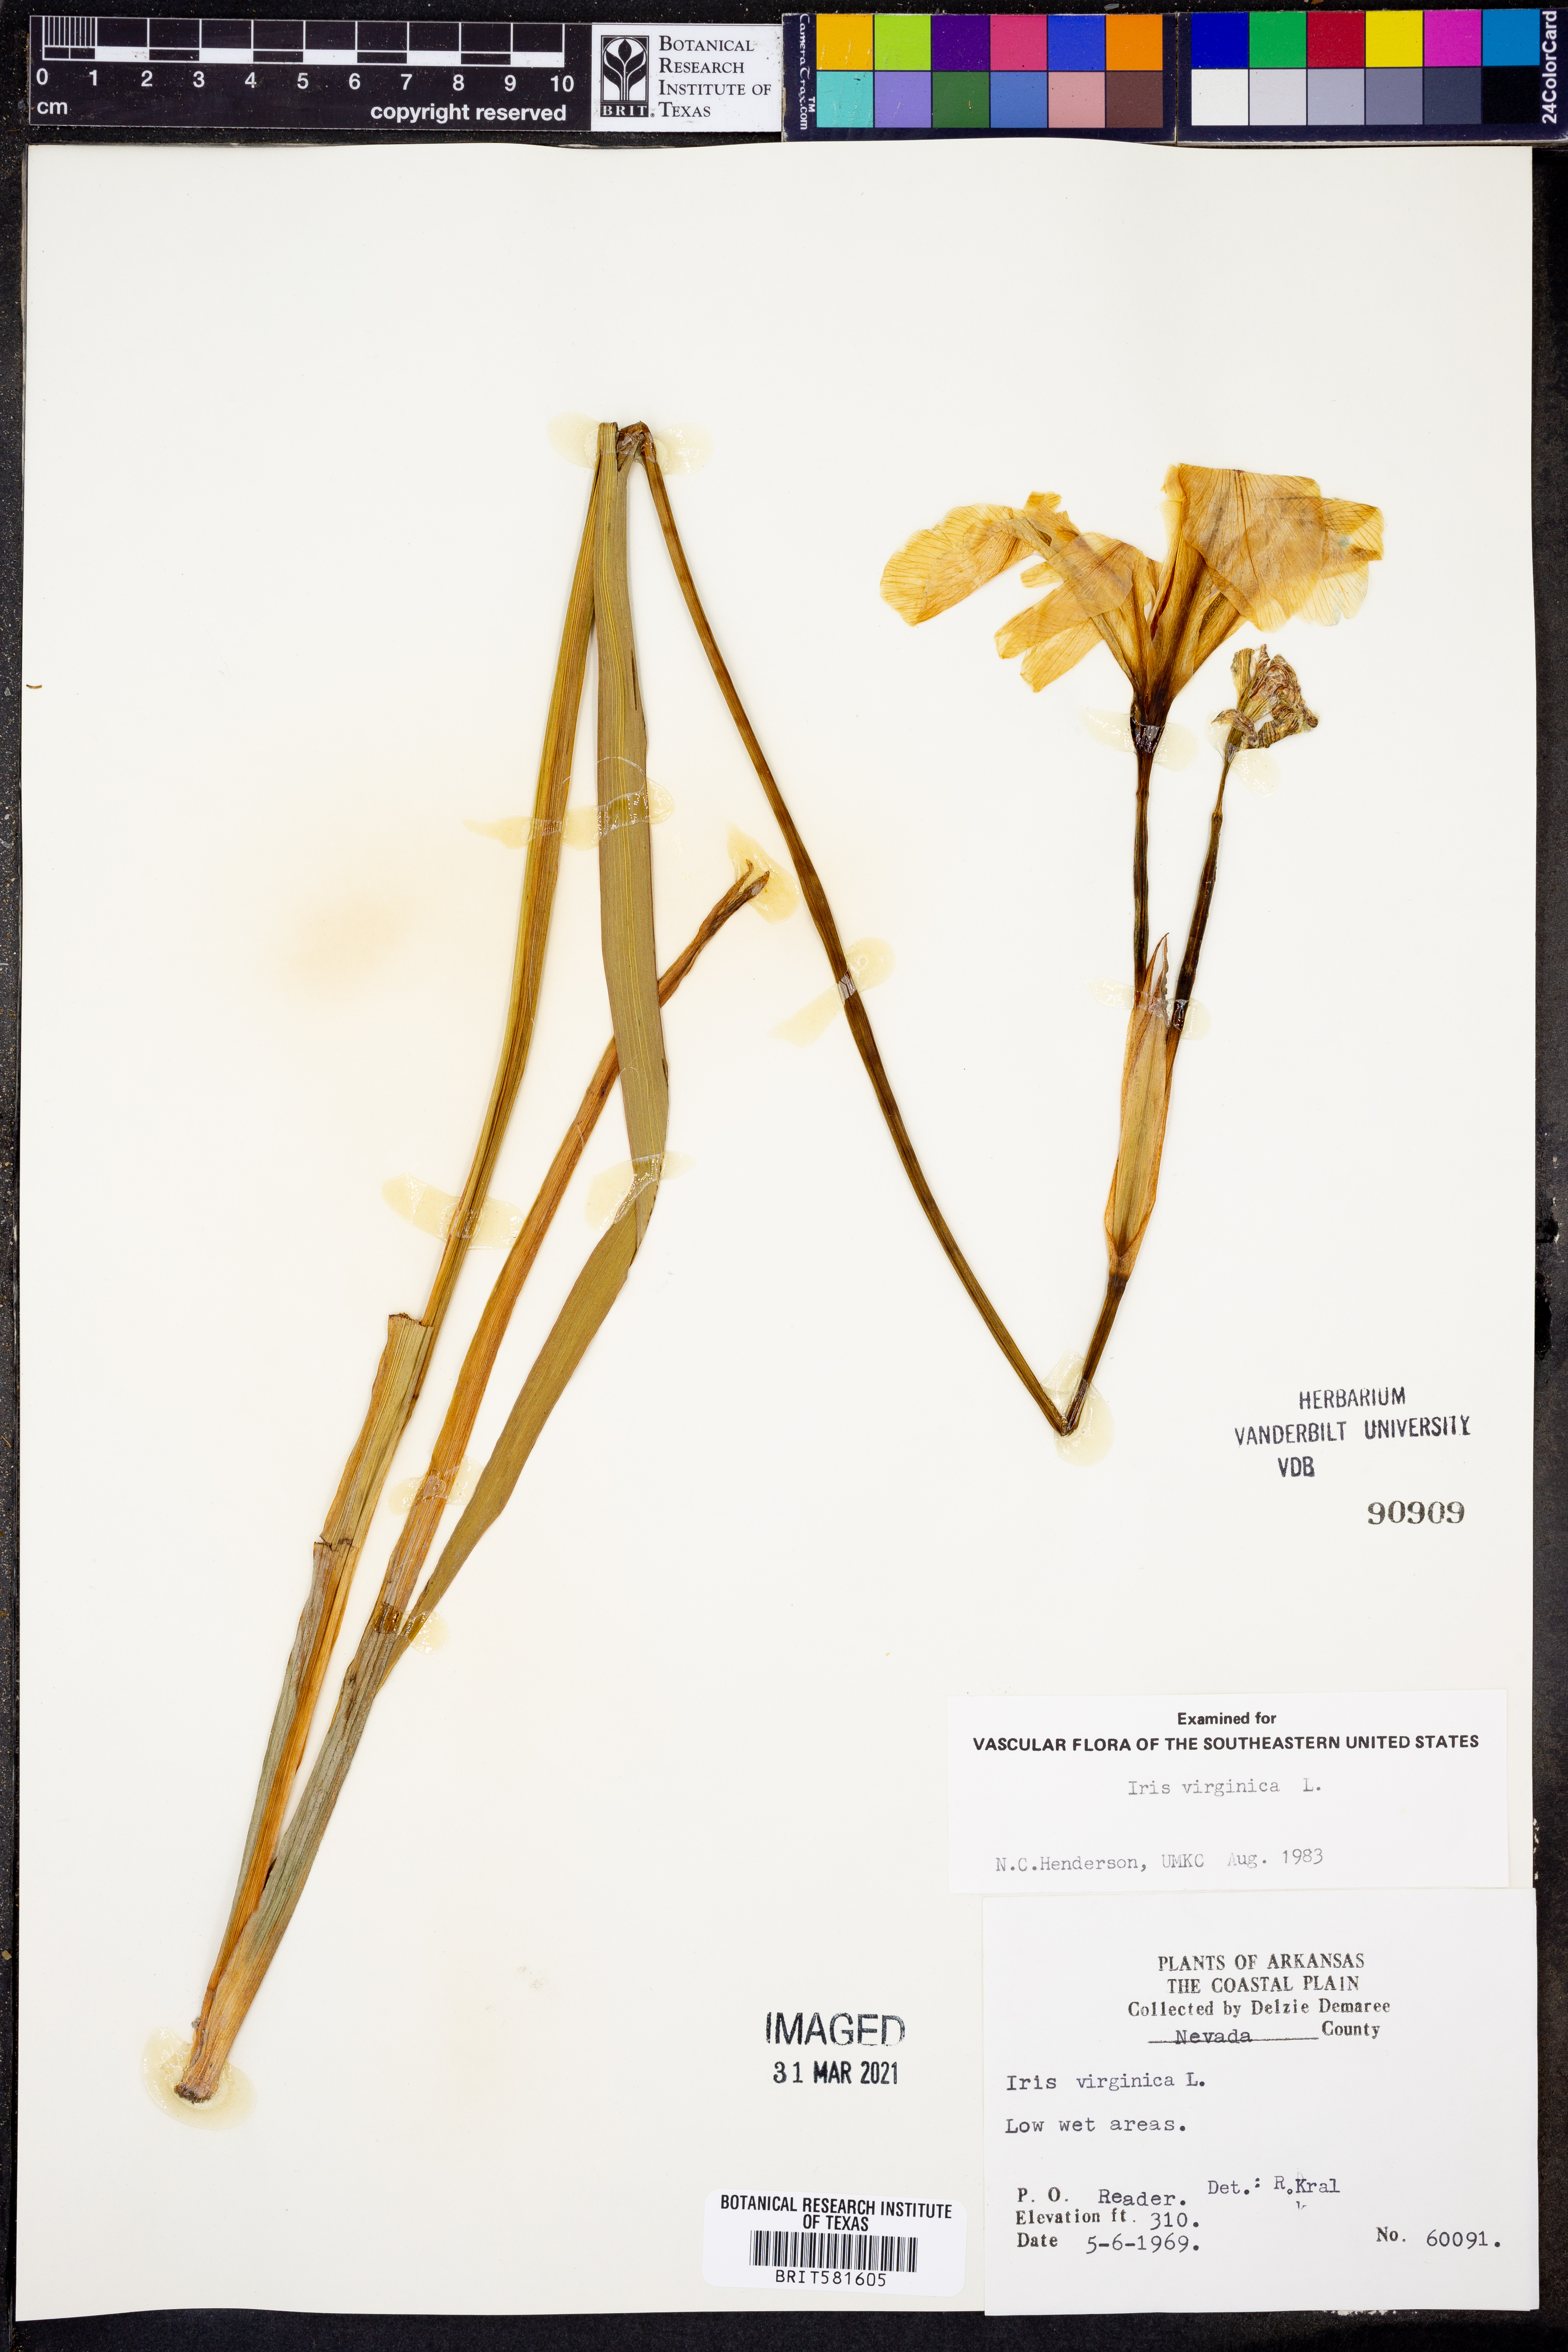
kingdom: Plantae
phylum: Tracheophyta
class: Liliopsida
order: Asparagales
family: Iridaceae
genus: Iris
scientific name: Iris virginica
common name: Southern blue flag
